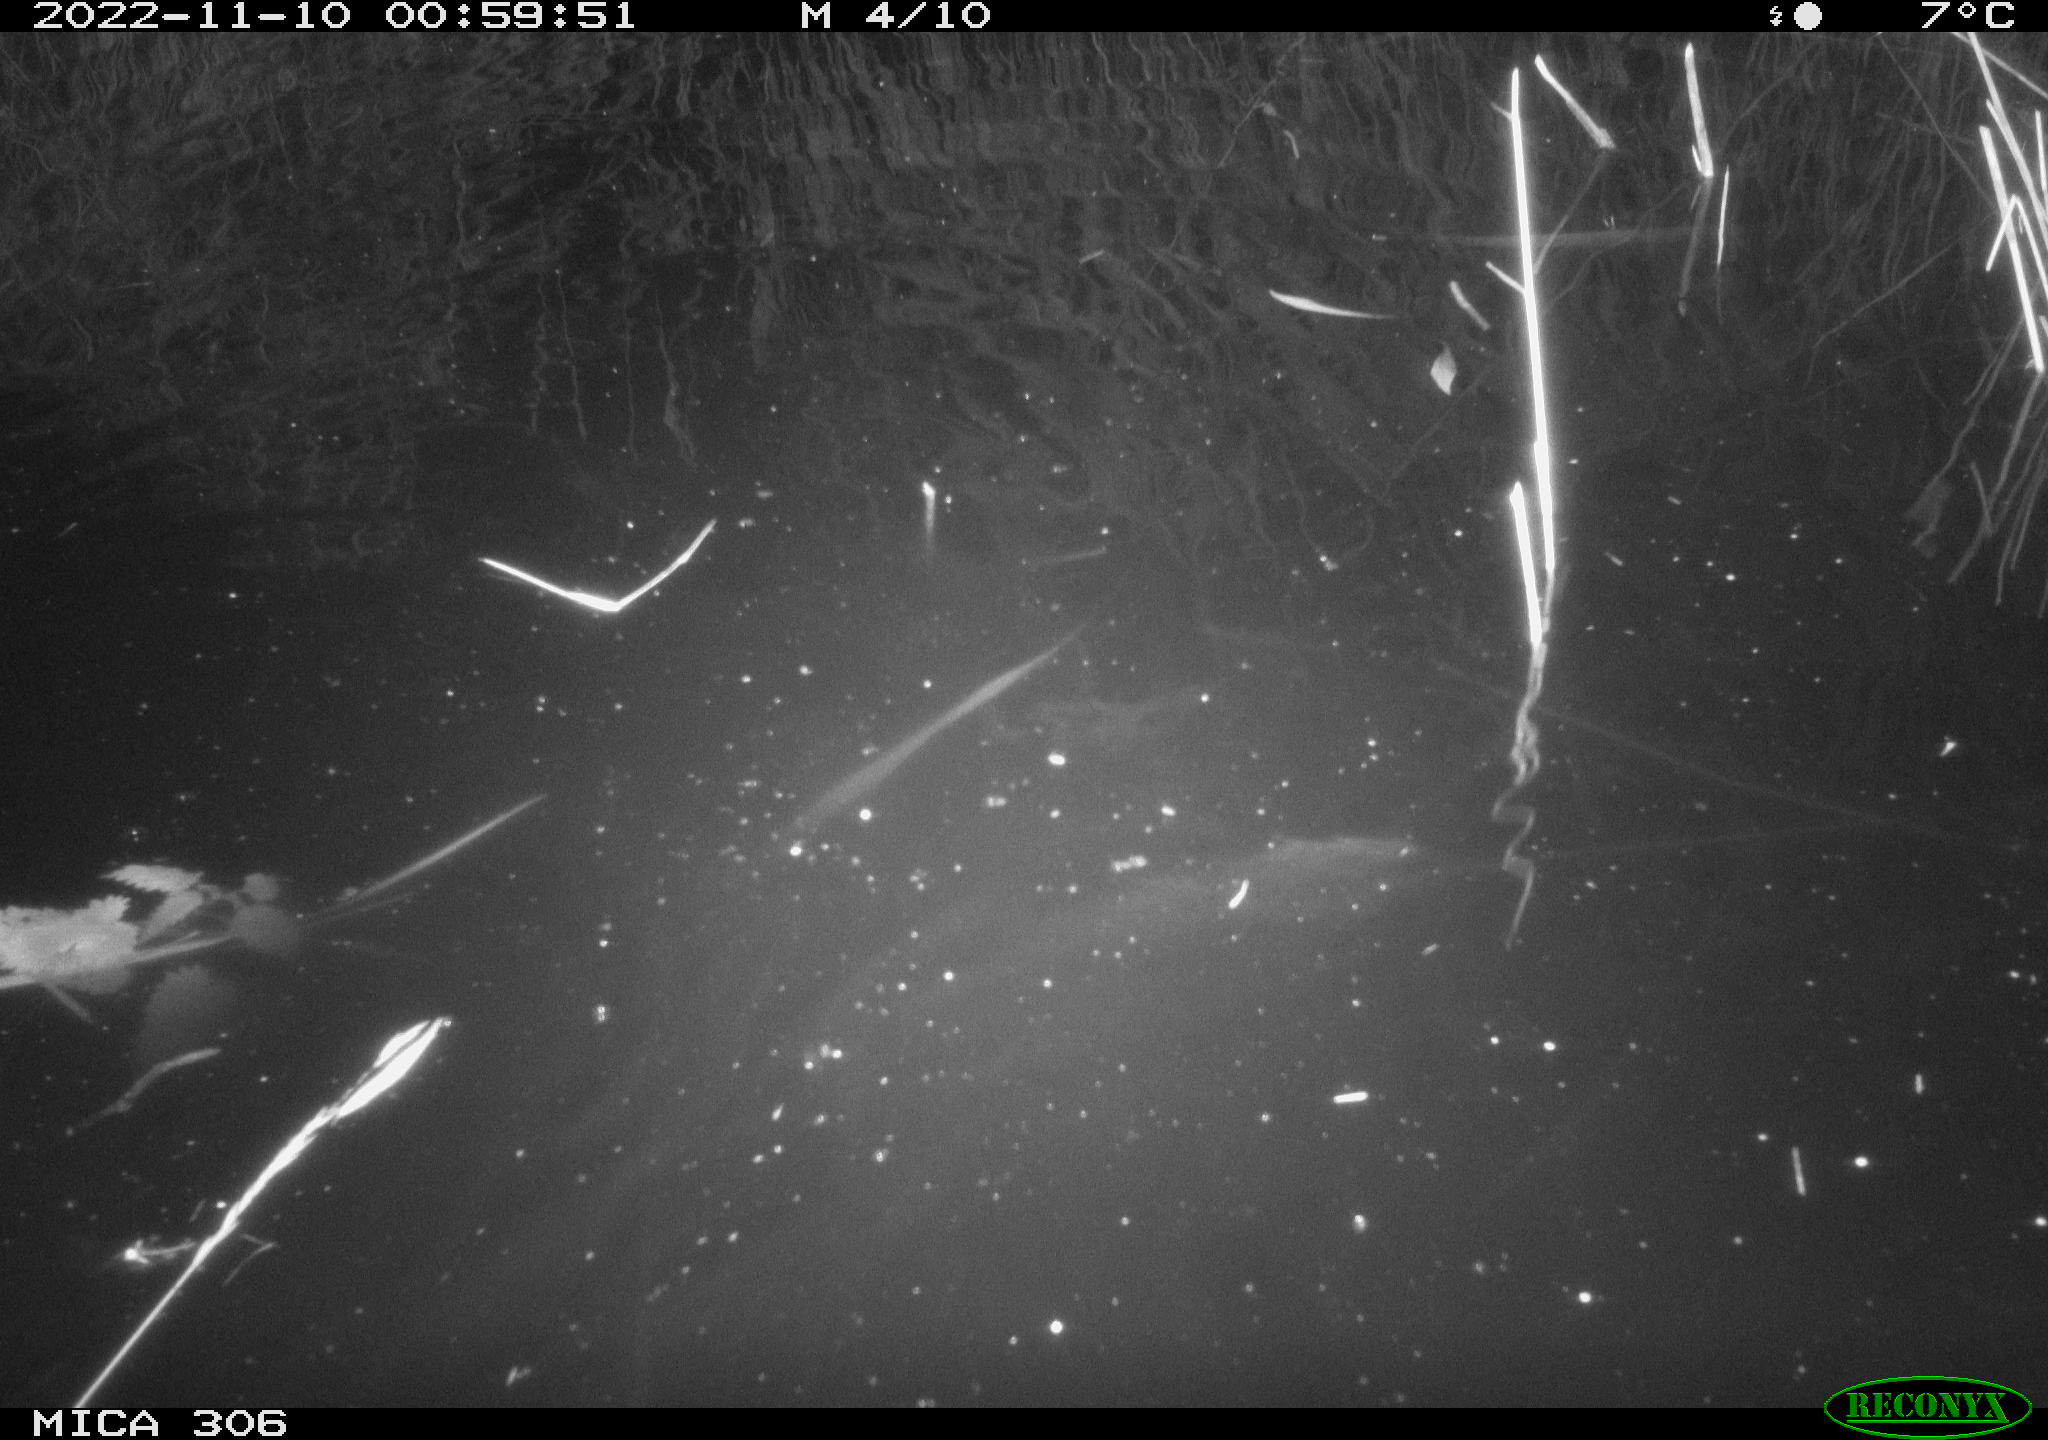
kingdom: Animalia
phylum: Chordata
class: Mammalia
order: Rodentia
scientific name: Rodentia
